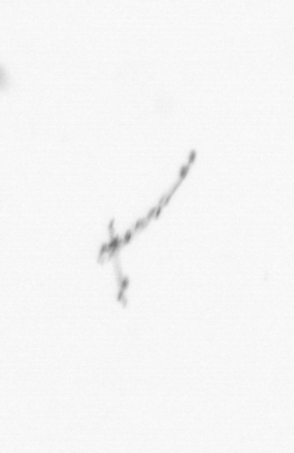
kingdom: Chromista
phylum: Ochrophyta
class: Bacillariophyceae
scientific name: Bacillariophyceae
